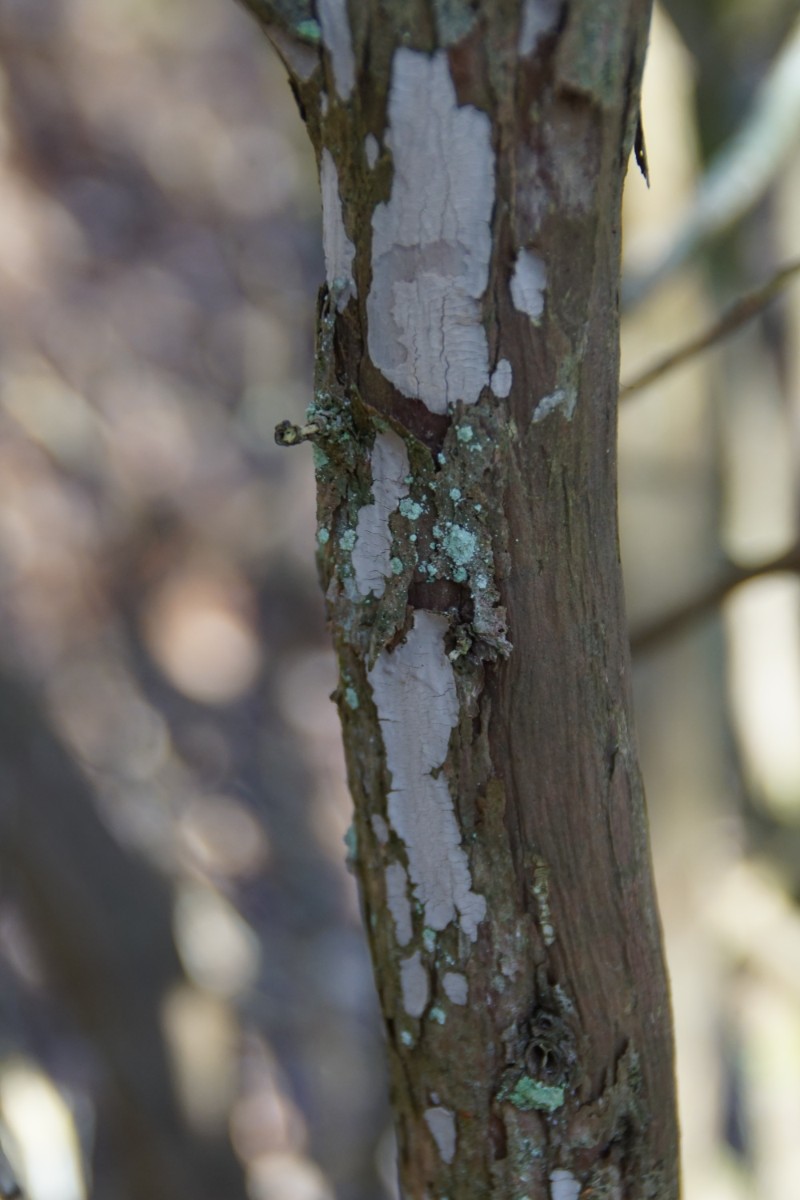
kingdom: Fungi
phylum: Basidiomycota
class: Agaricomycetes
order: Russulales
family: Echinodontiaceae
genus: Amylostereum
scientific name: Amylostereum laevigatum
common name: ene-lædersvamp
